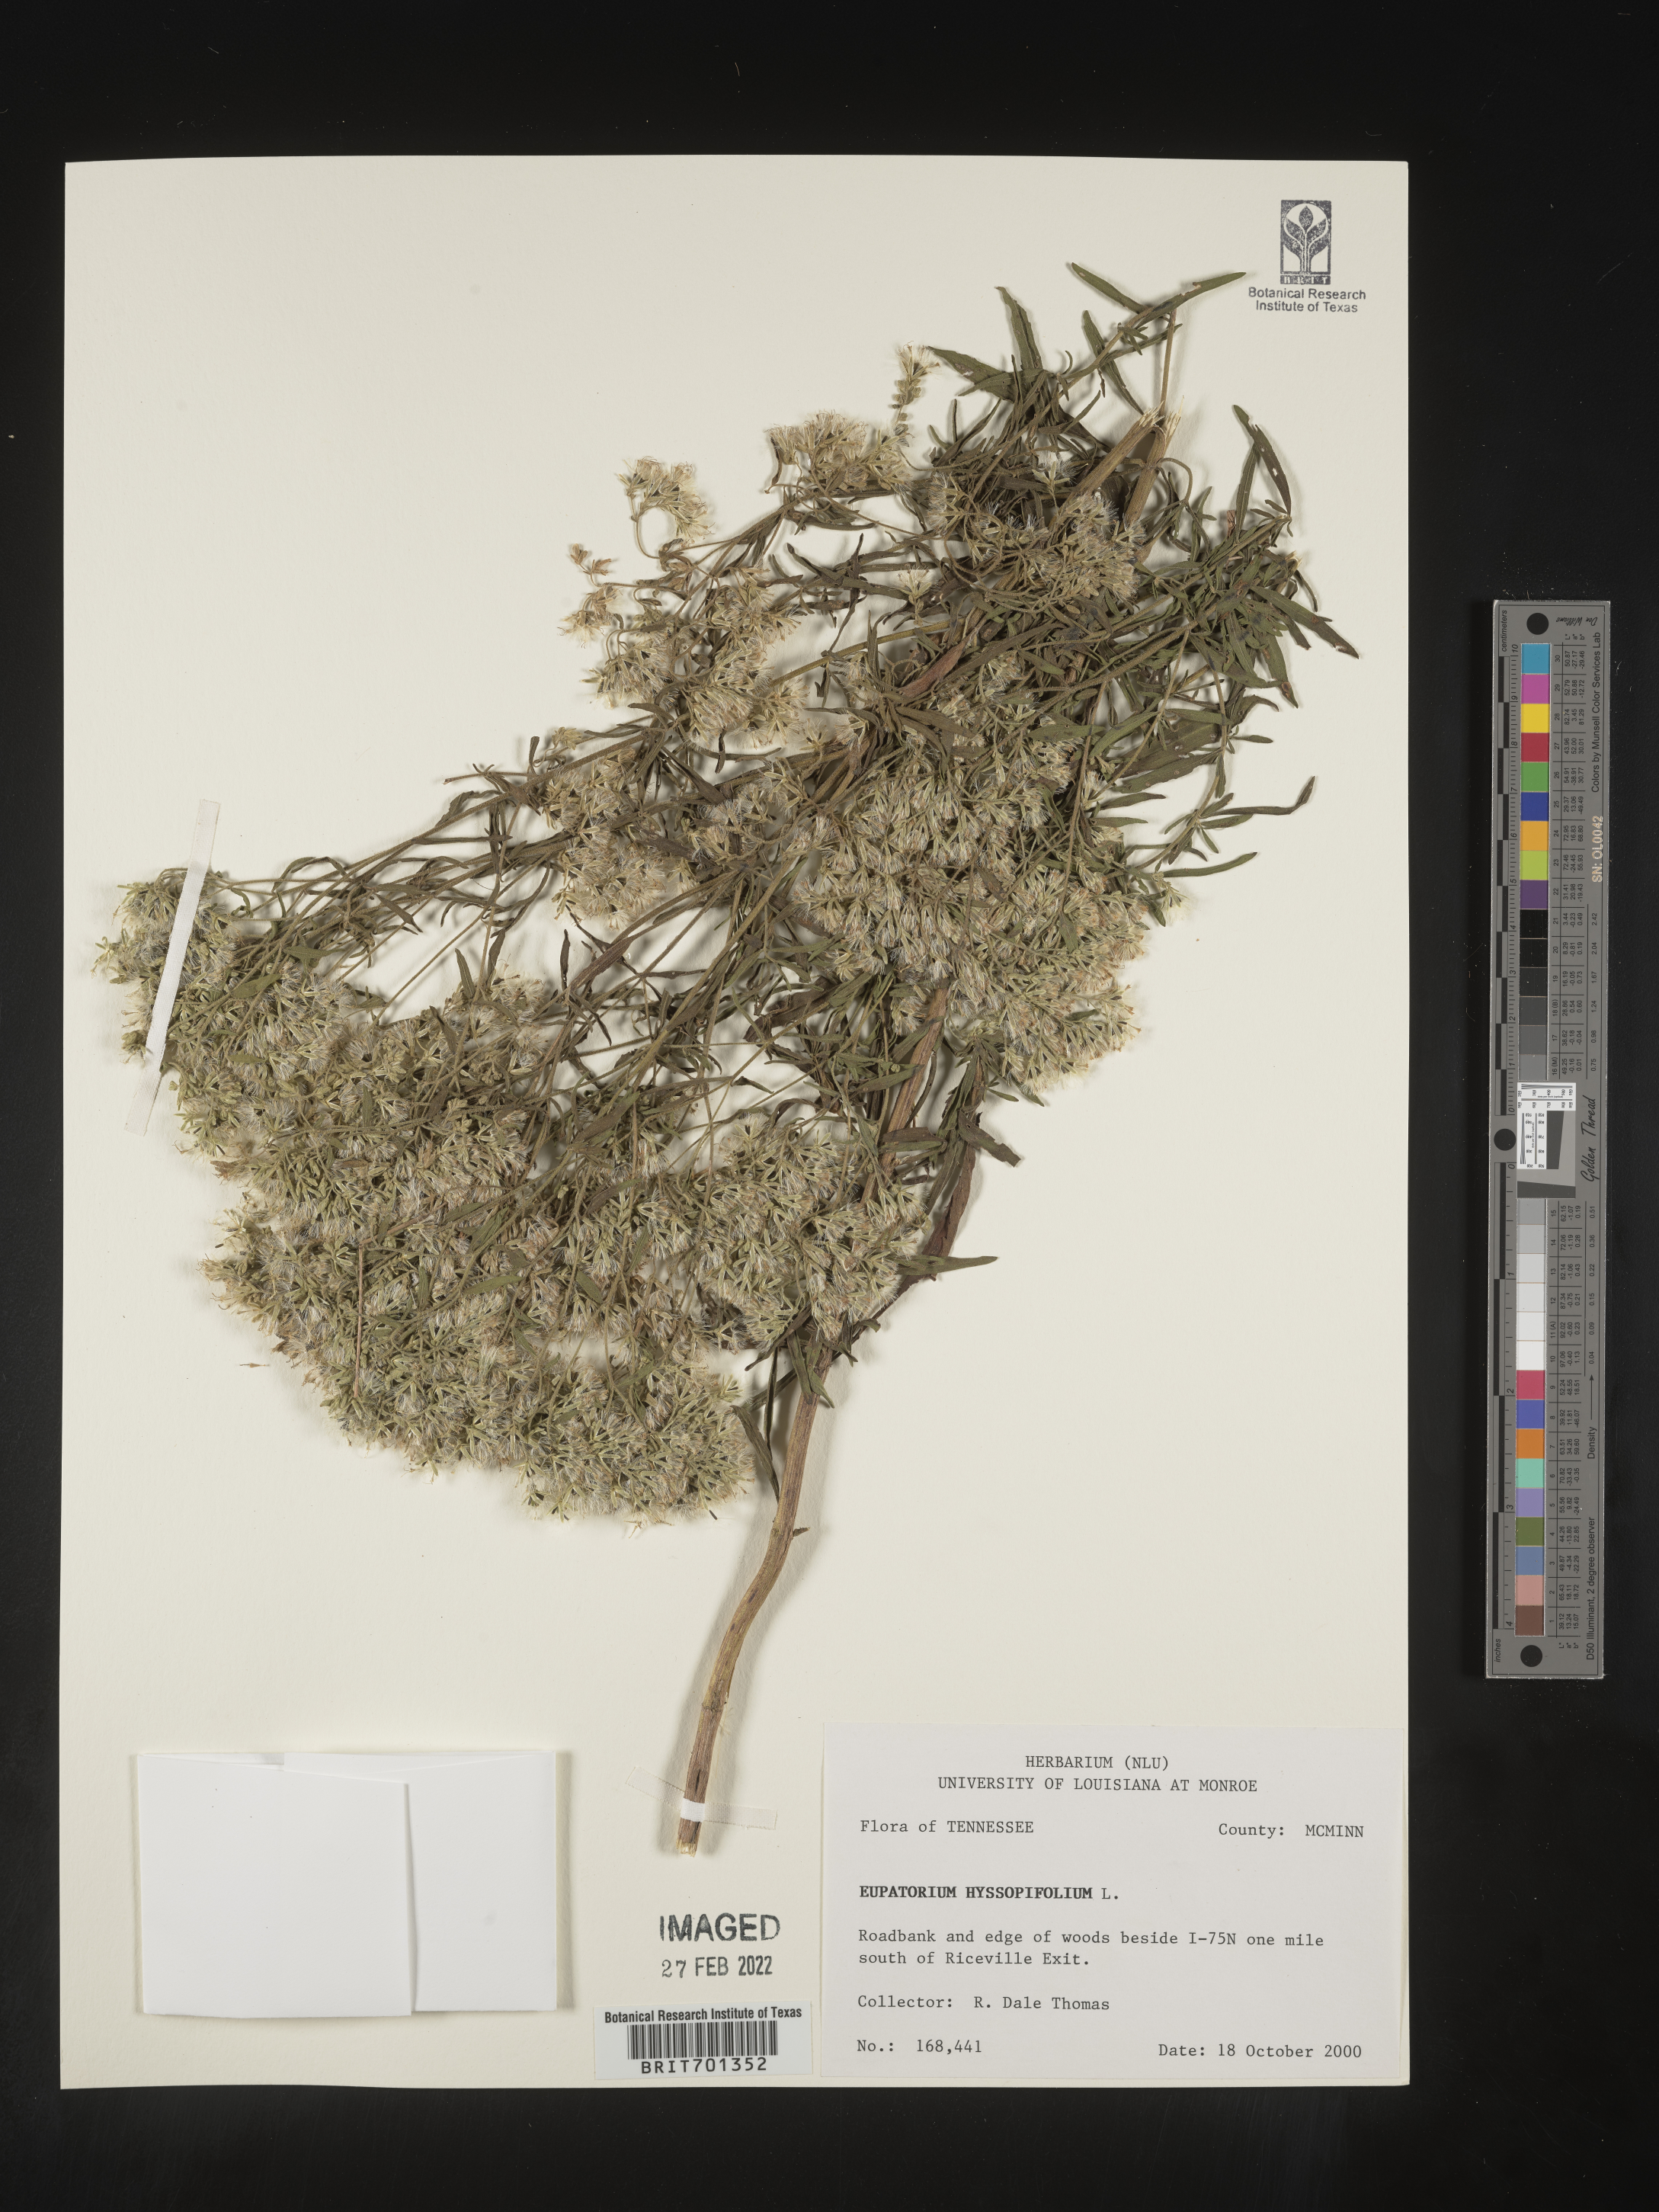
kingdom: Plantae
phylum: Tracheophyta
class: Magnoliopsida
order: Asterales
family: Asteraceae
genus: Eupatorium
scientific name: Eupatorium hyssopifolium
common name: Hyssop-leaf thoroughwort
